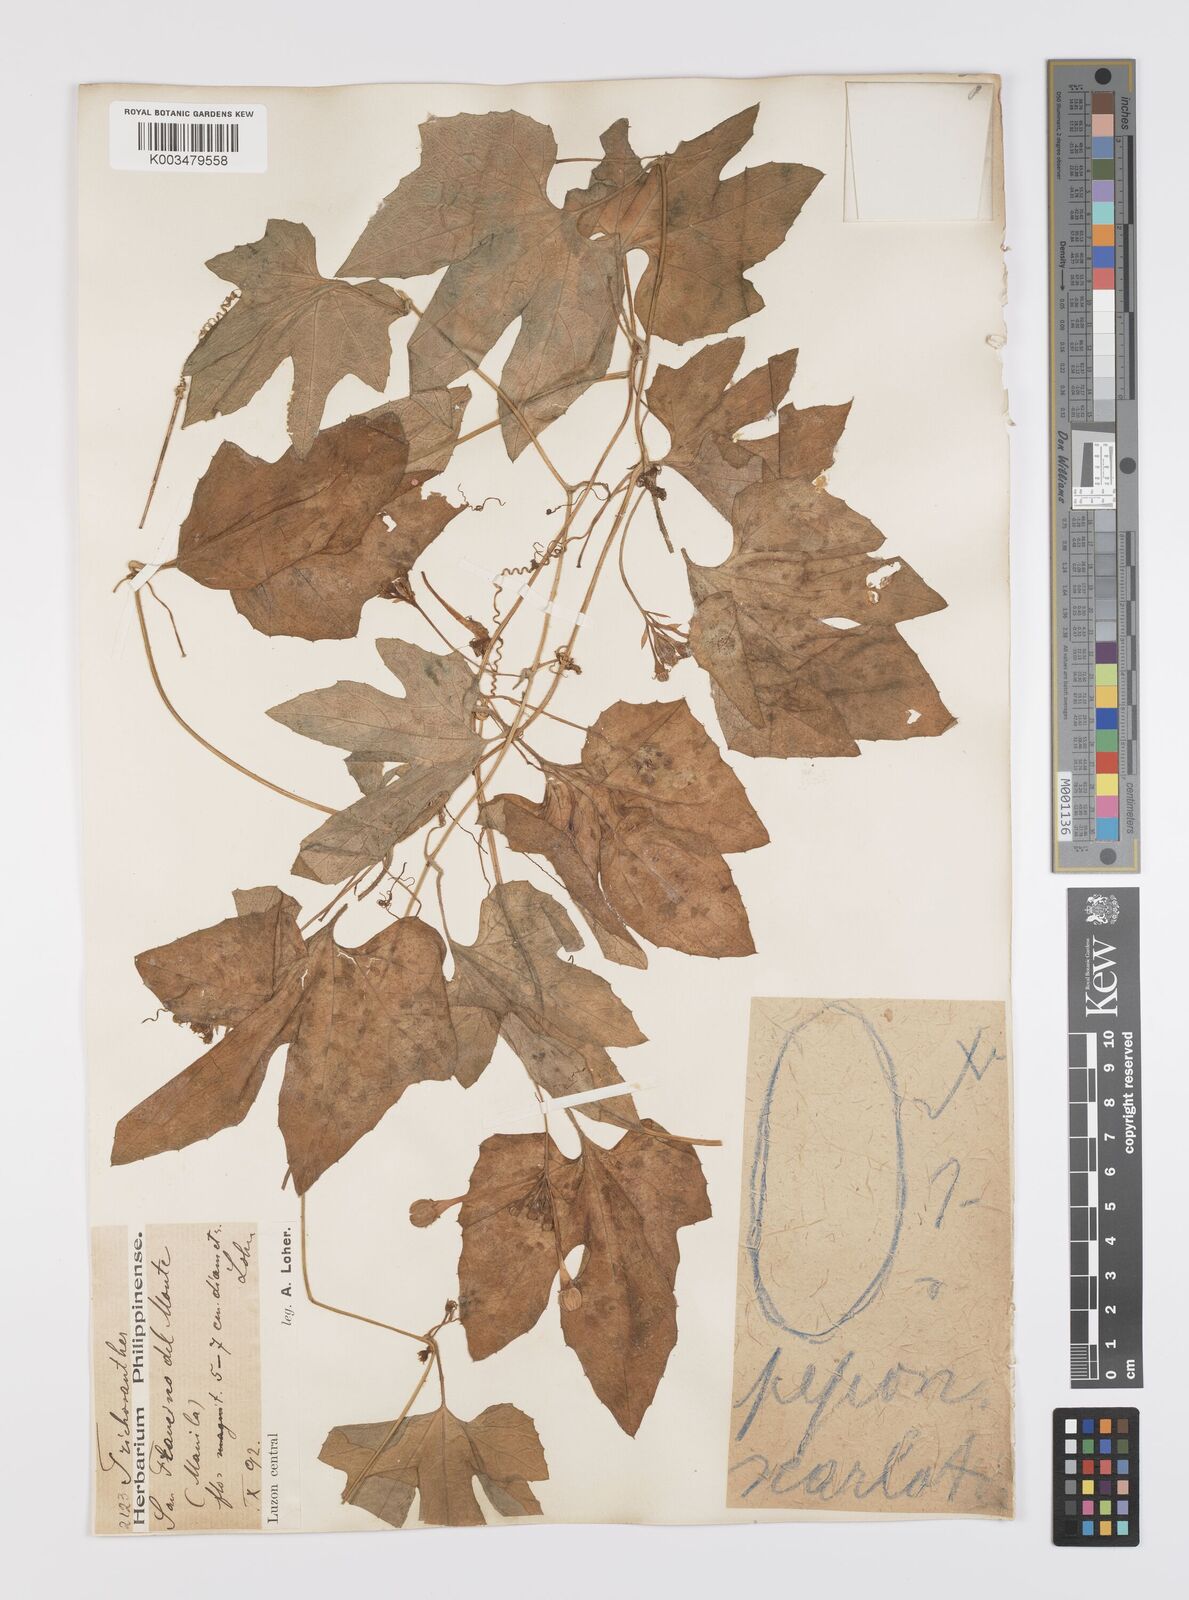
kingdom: Plantae
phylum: Tracheophyta
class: Magnoliopsida
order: Cucurbitales
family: Cucurbitaceae
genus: Trichosanthes
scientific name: Trichosanthes ovigera
